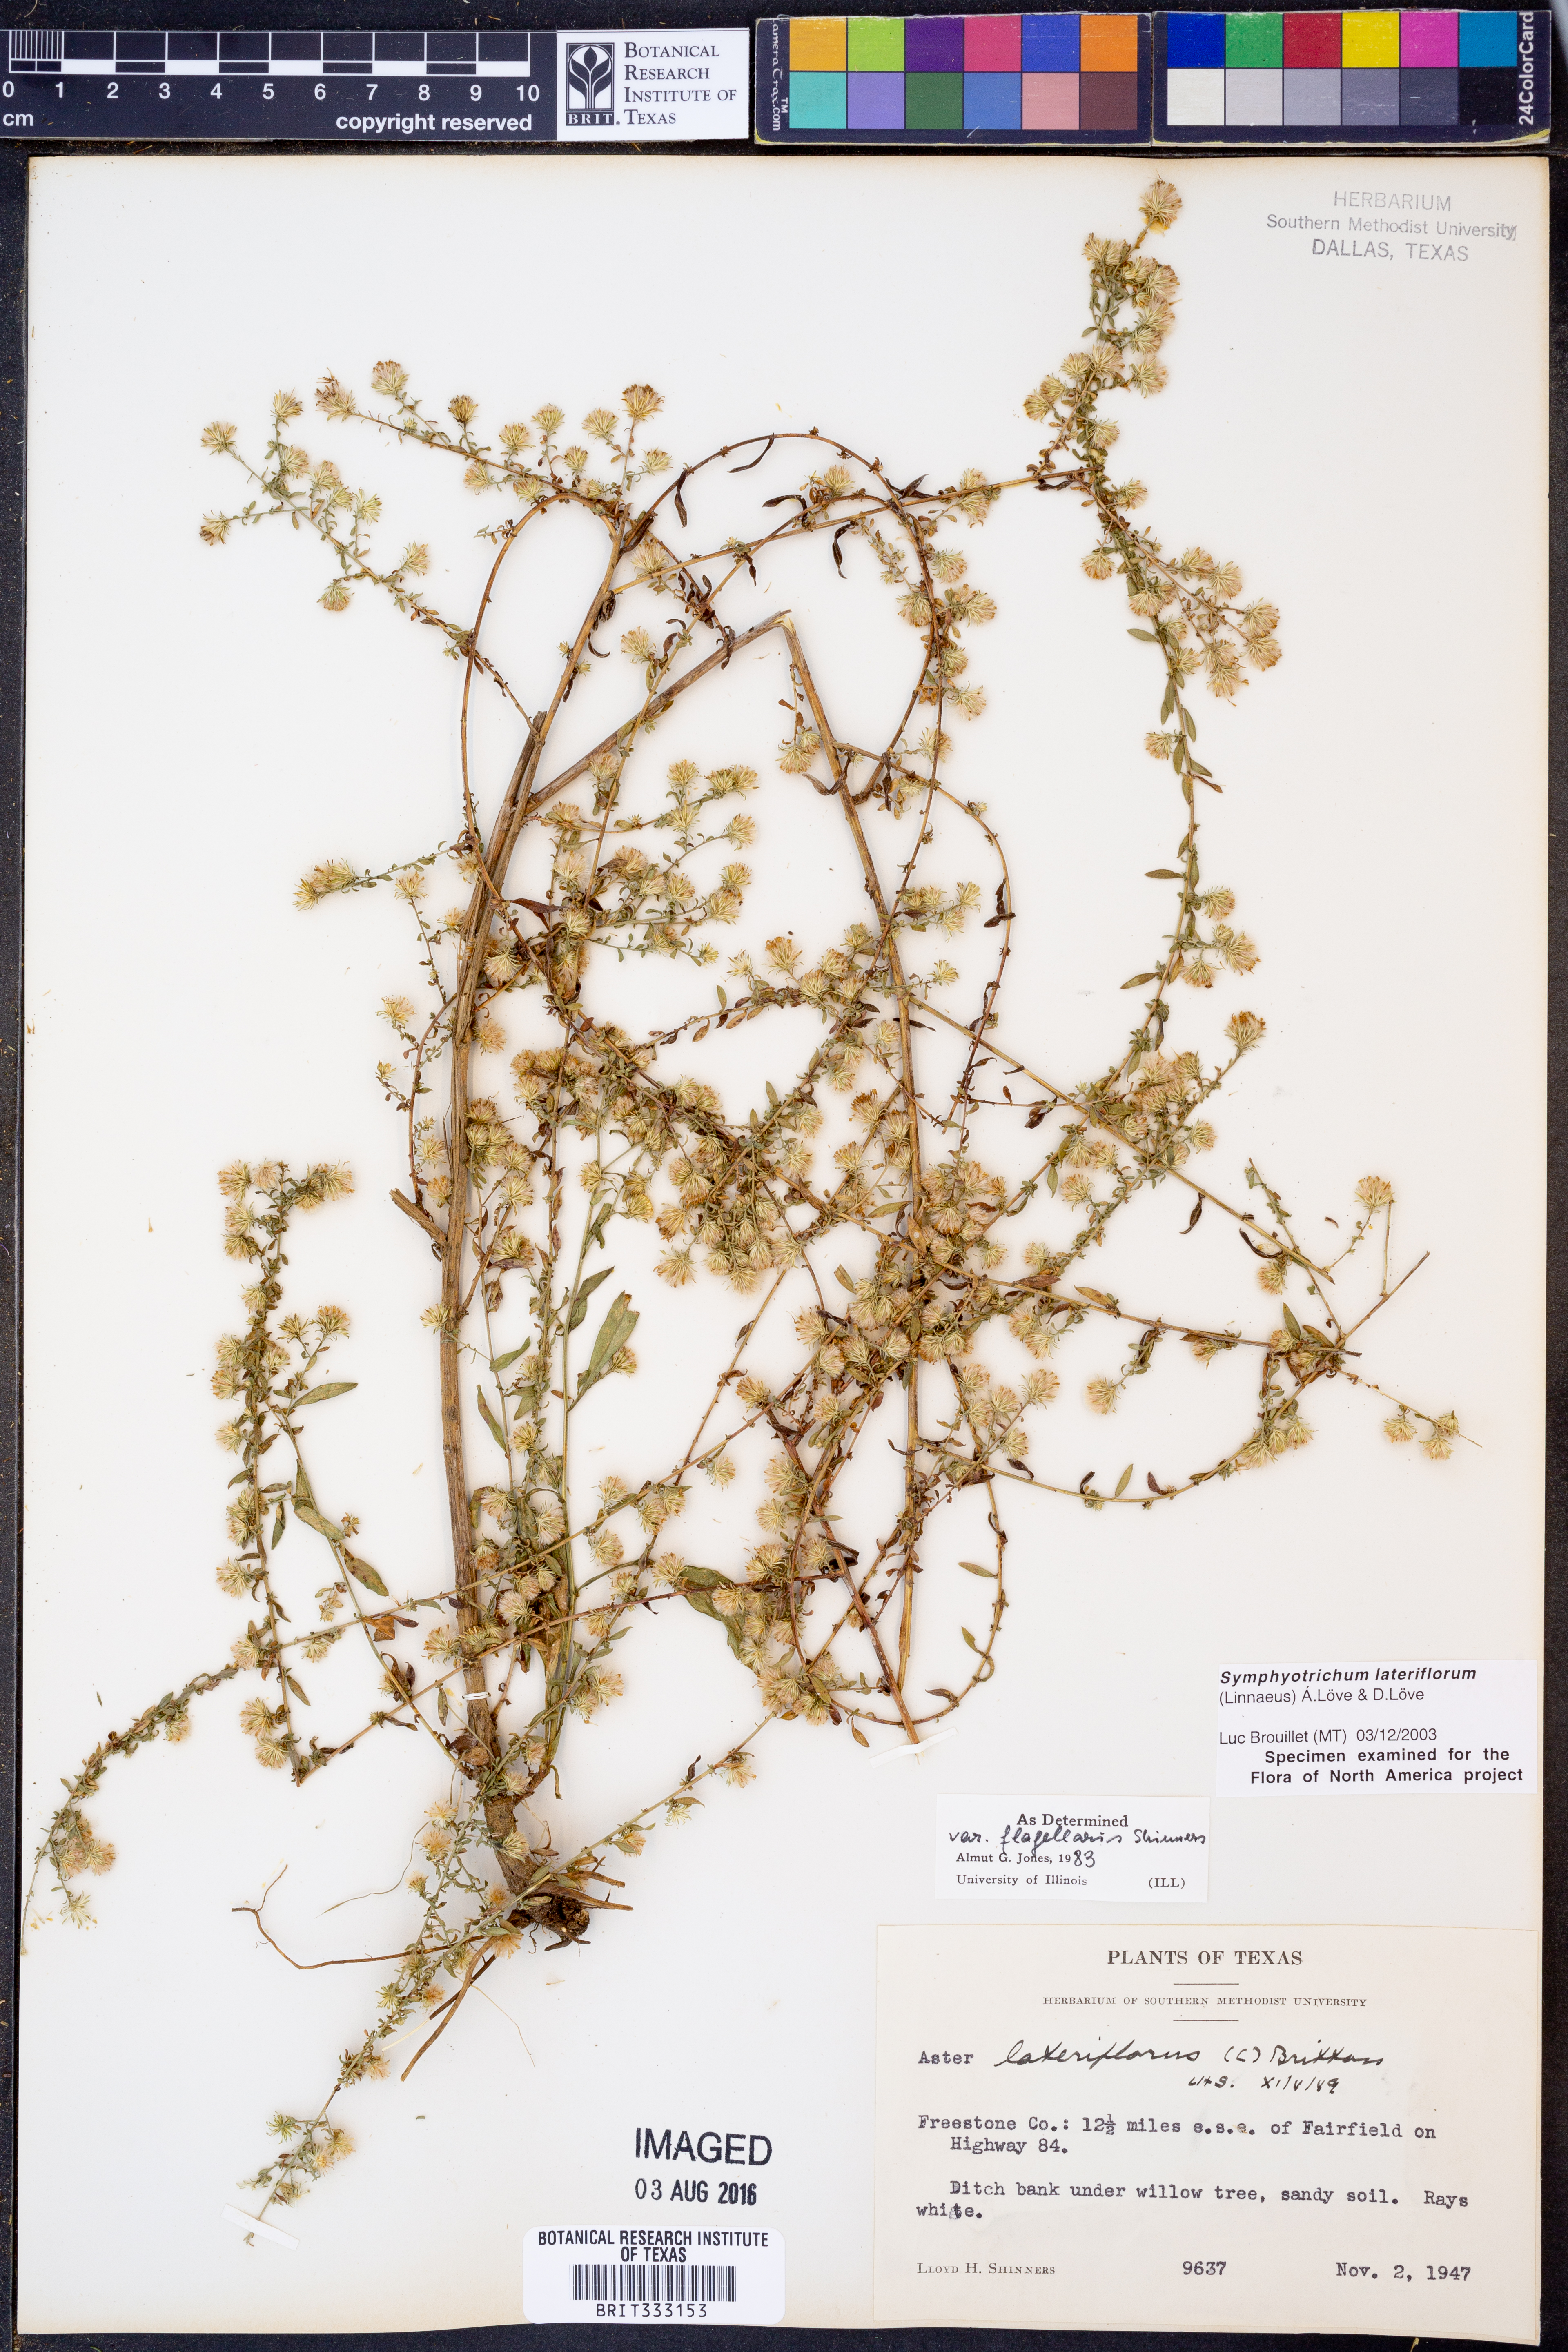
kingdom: Plantae
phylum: Tracheophyta
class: Magnoliopsida
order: Asterales
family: Asteraceae
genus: Symphyotrichum
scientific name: Symphyotrichum lateriflorum
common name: Calico aster
